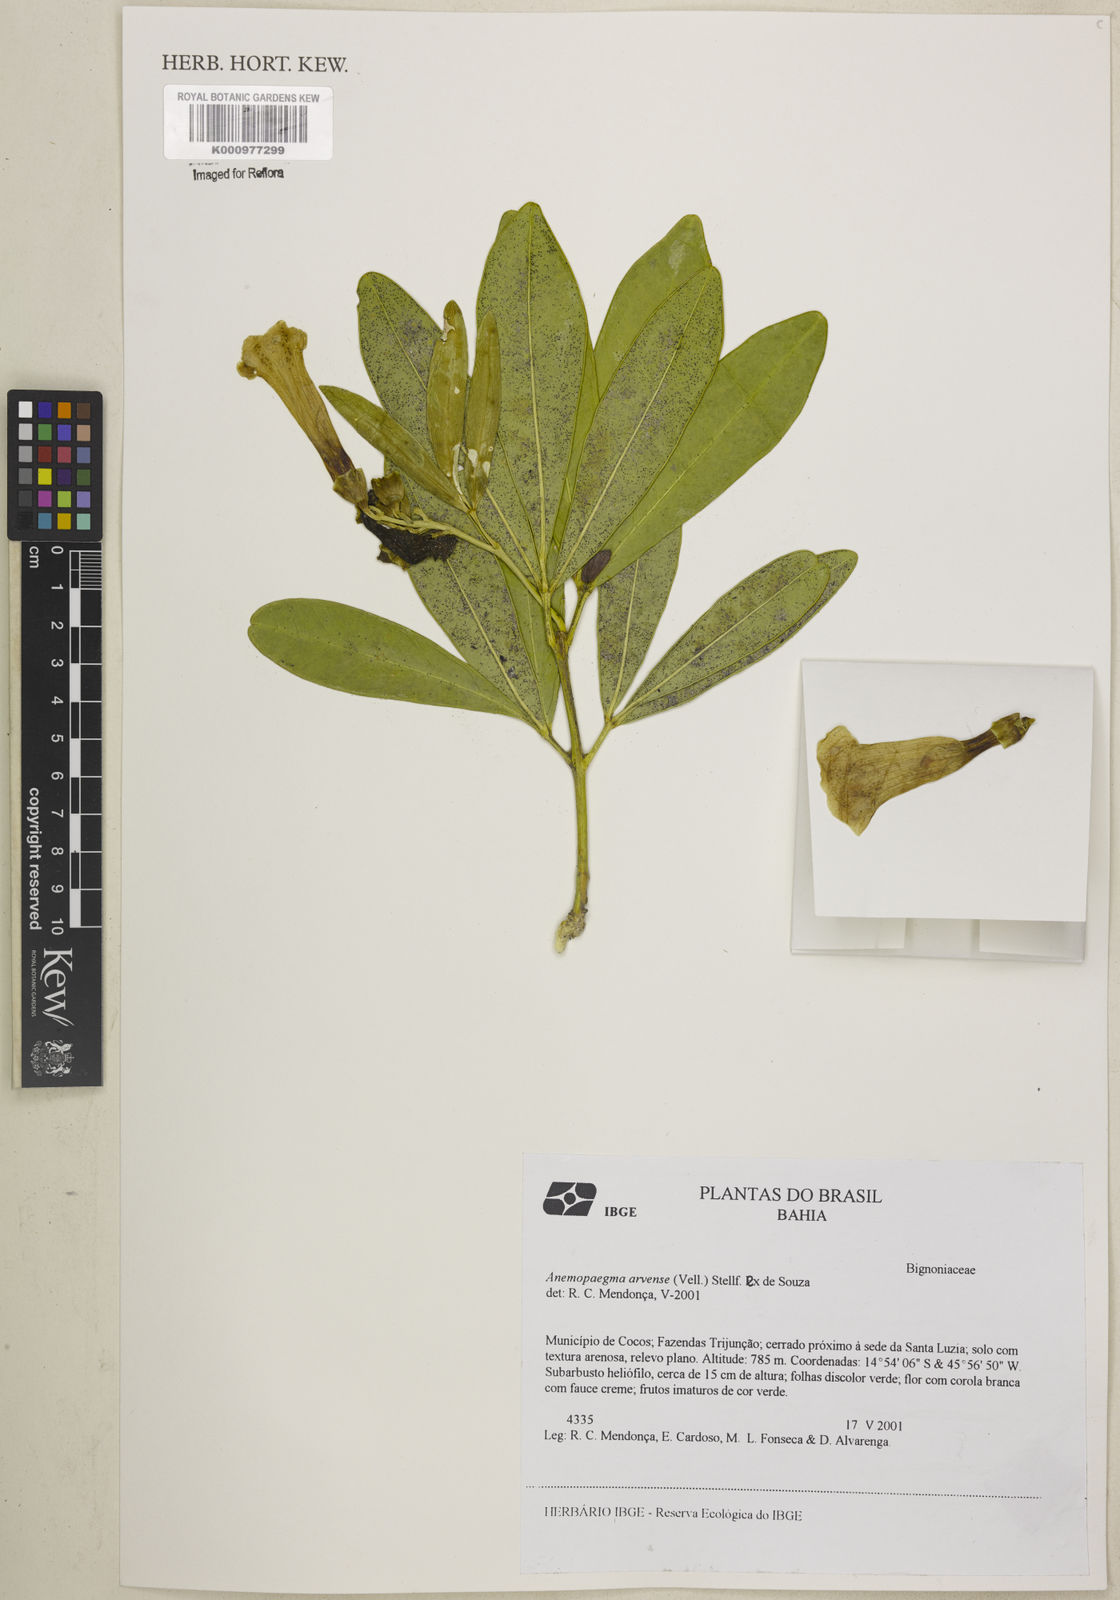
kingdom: Plantae
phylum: Tracheophyta
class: Magnoliopsida
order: Lamiales
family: Bignoniaceae
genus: Anemopaegma
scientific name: Anemopaegma arvense
